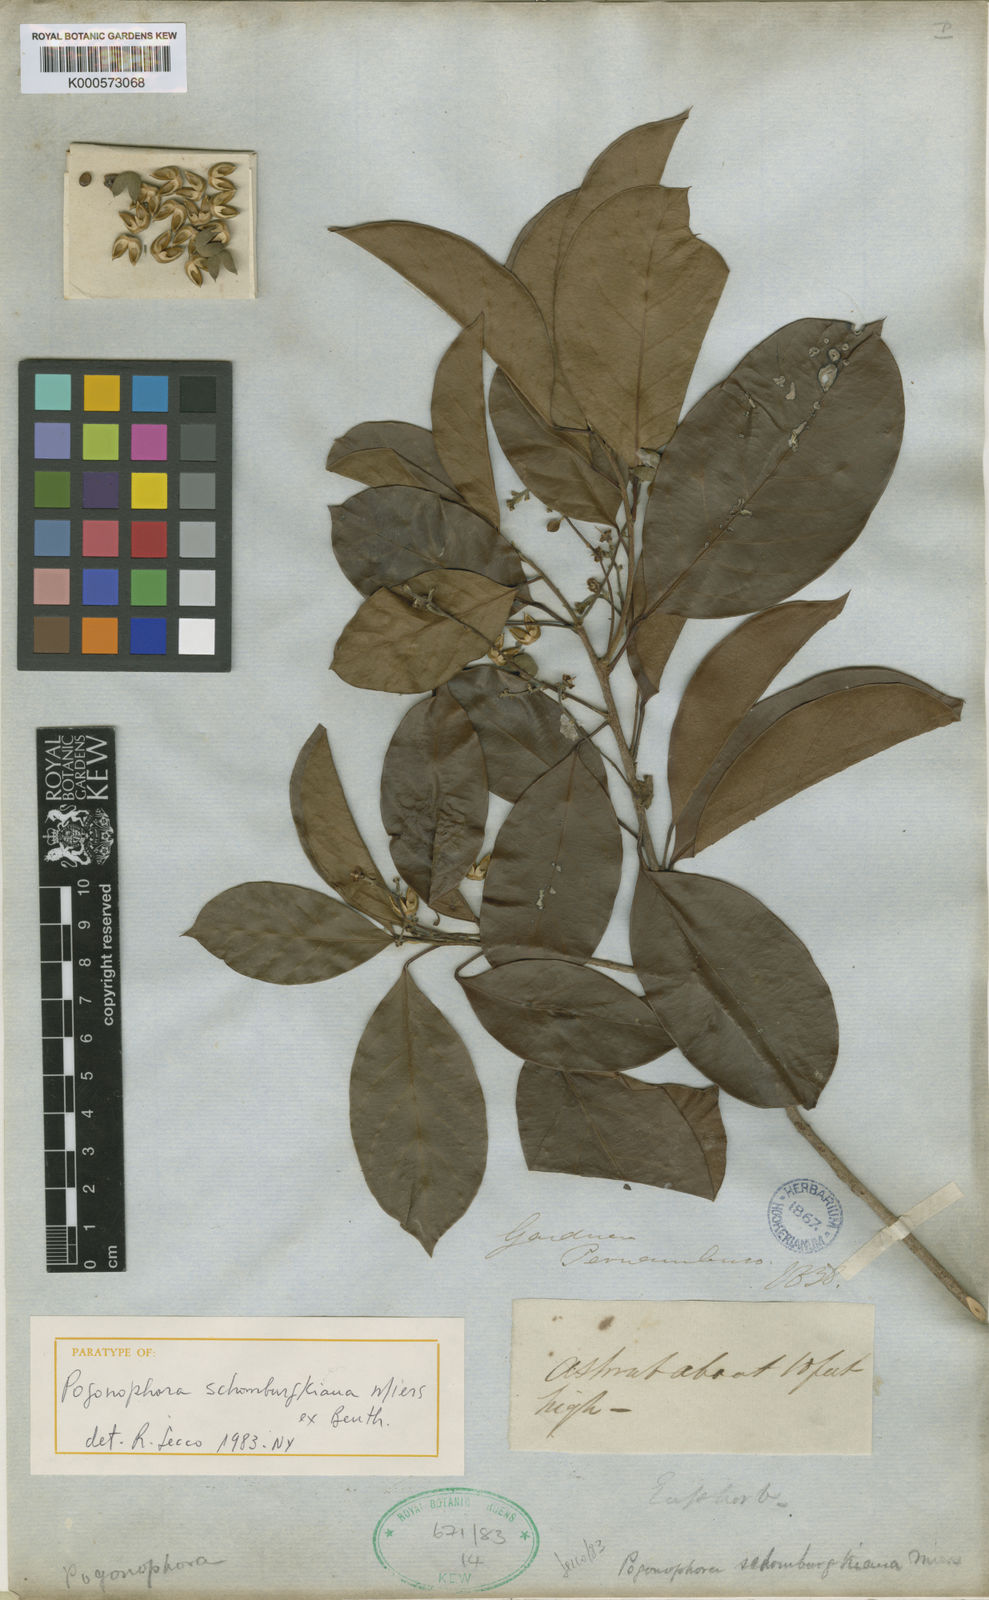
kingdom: Plantae
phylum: Tracheophyta
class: Magnoliopsida
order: Malpighiales
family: Peraceae
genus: Pogonophora
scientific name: Pogonophora schomburgkiana
